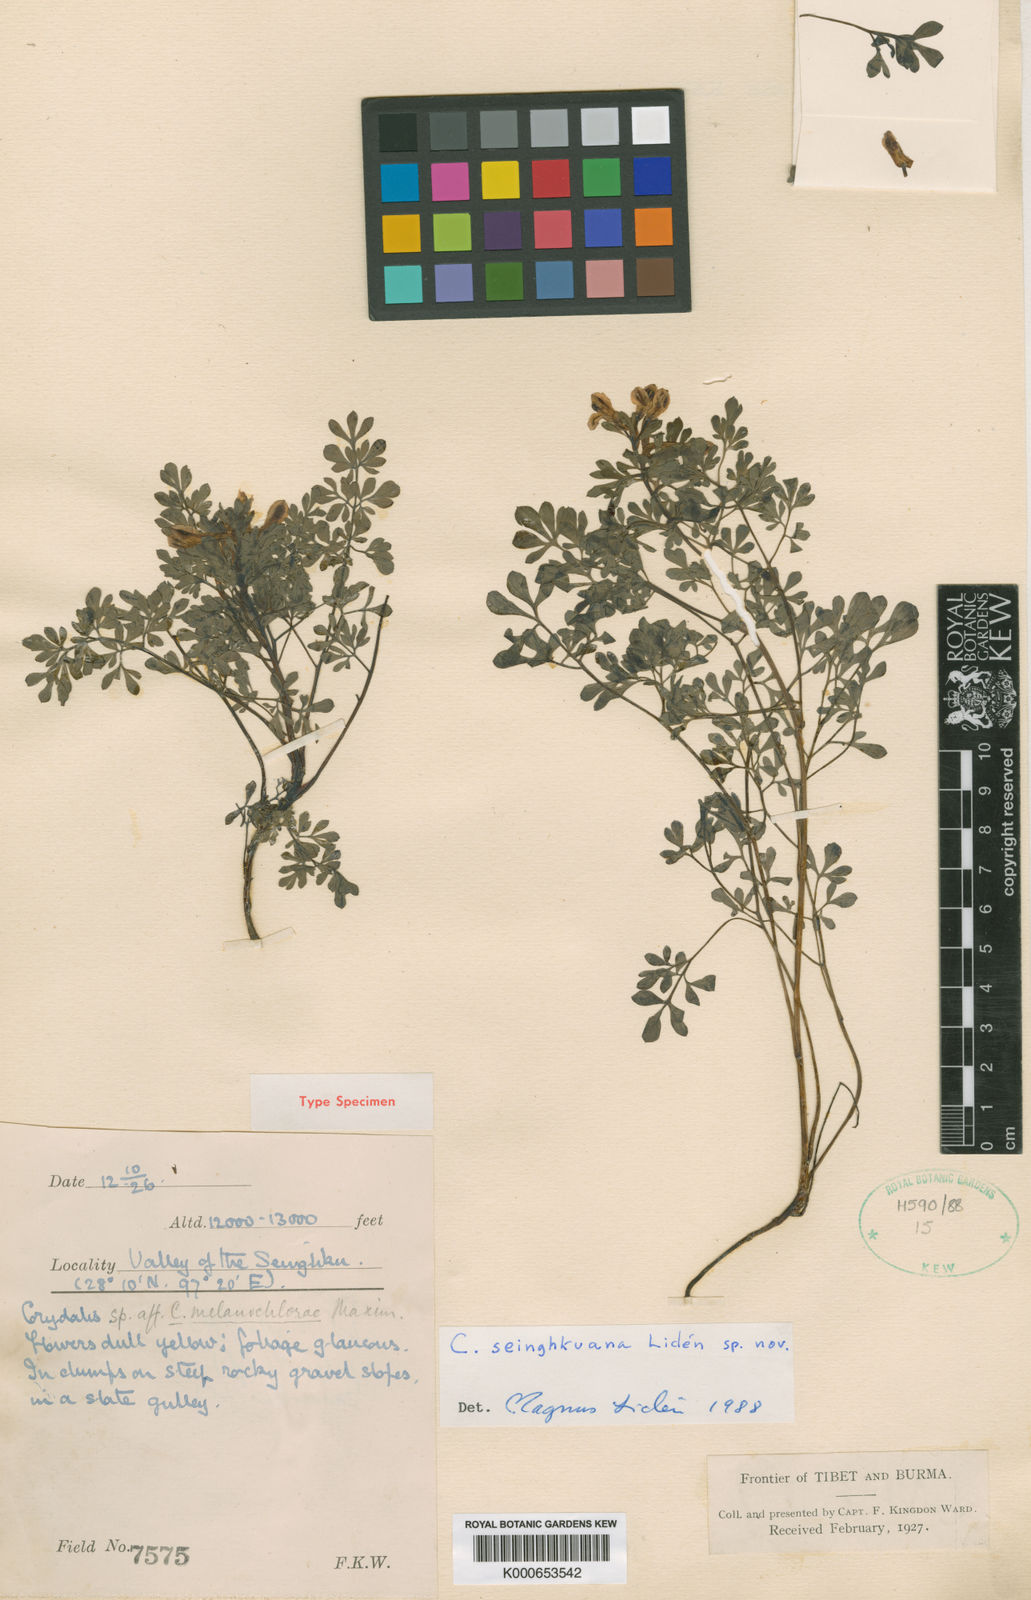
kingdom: Plantae
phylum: Tracheophyta
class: Magnoliopsida
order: Ranunculales
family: Papaveraceae
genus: Corydalis
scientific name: Corydalis
